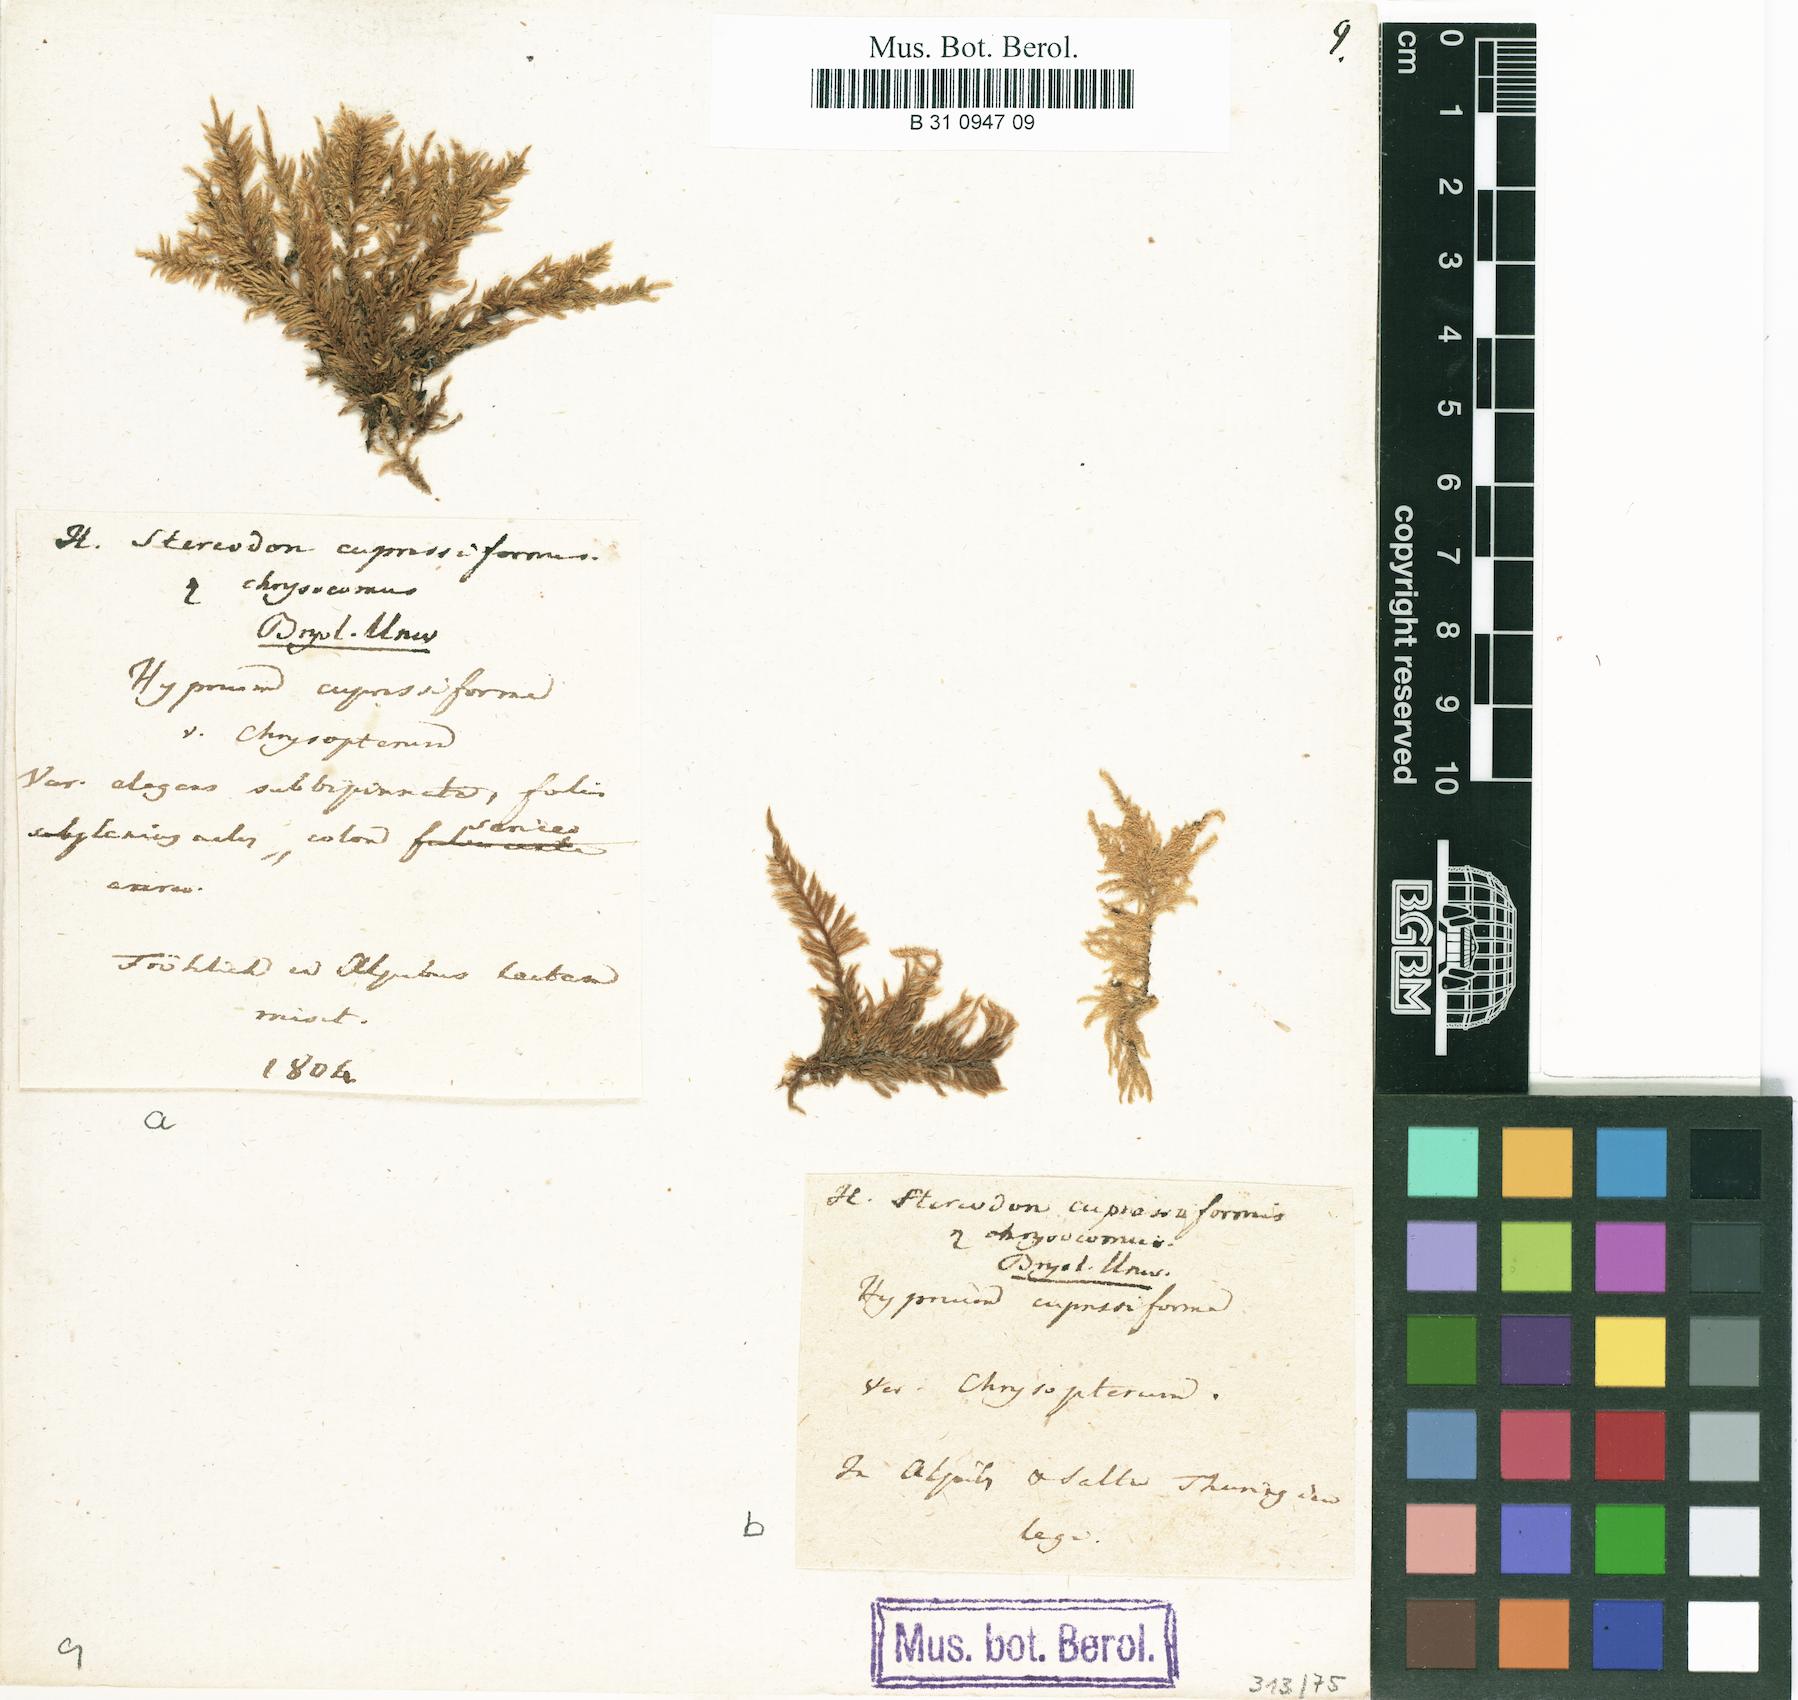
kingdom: Plantae
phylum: Bryophyta
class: Bryopsida
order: Hypnales
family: Hypnaceae
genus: Hypnum
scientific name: Hypnum cupressiforme
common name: Cypress-leaved plait-moss
